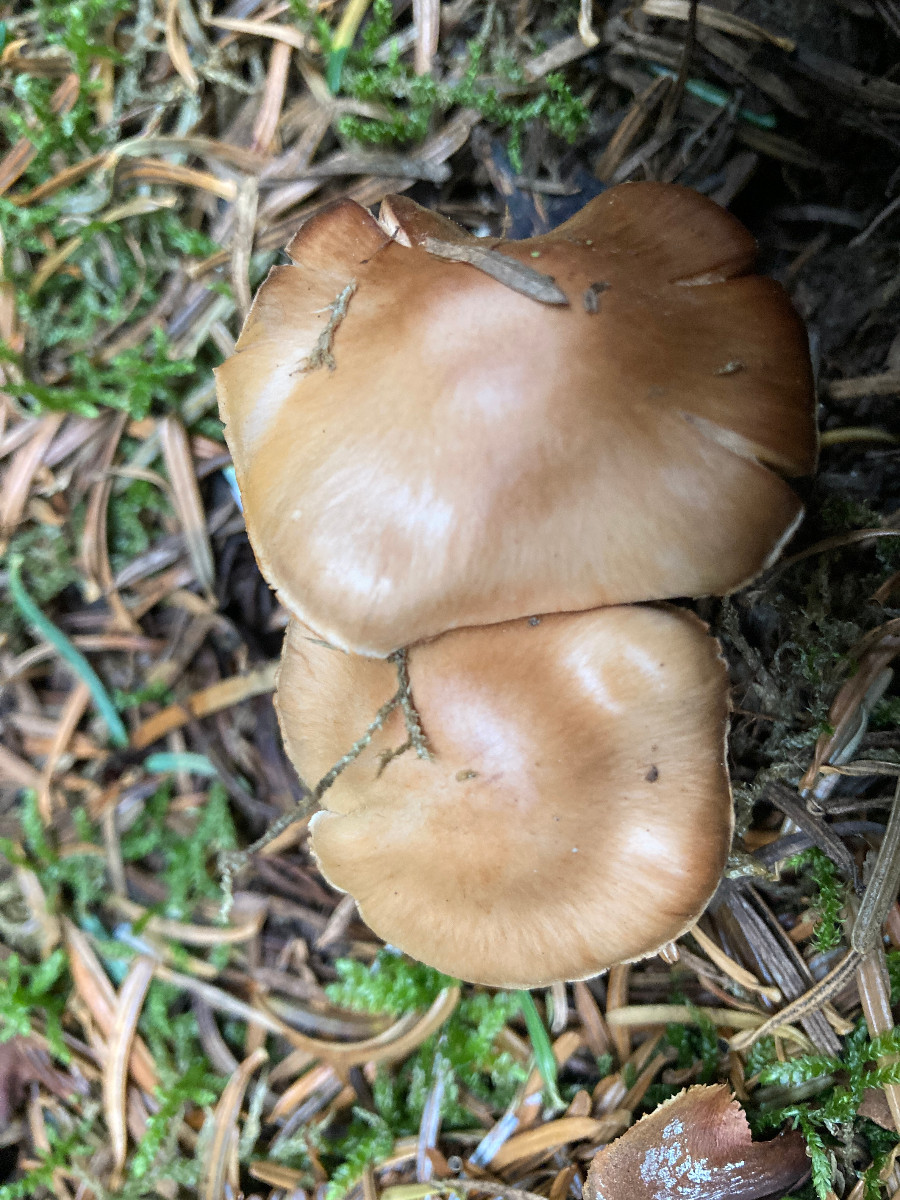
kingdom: Fungi
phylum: Basidiomycota
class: Agaricomycetes
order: Agaricales
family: Cortinariaceae
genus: Cortinarius
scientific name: Cortinarius
